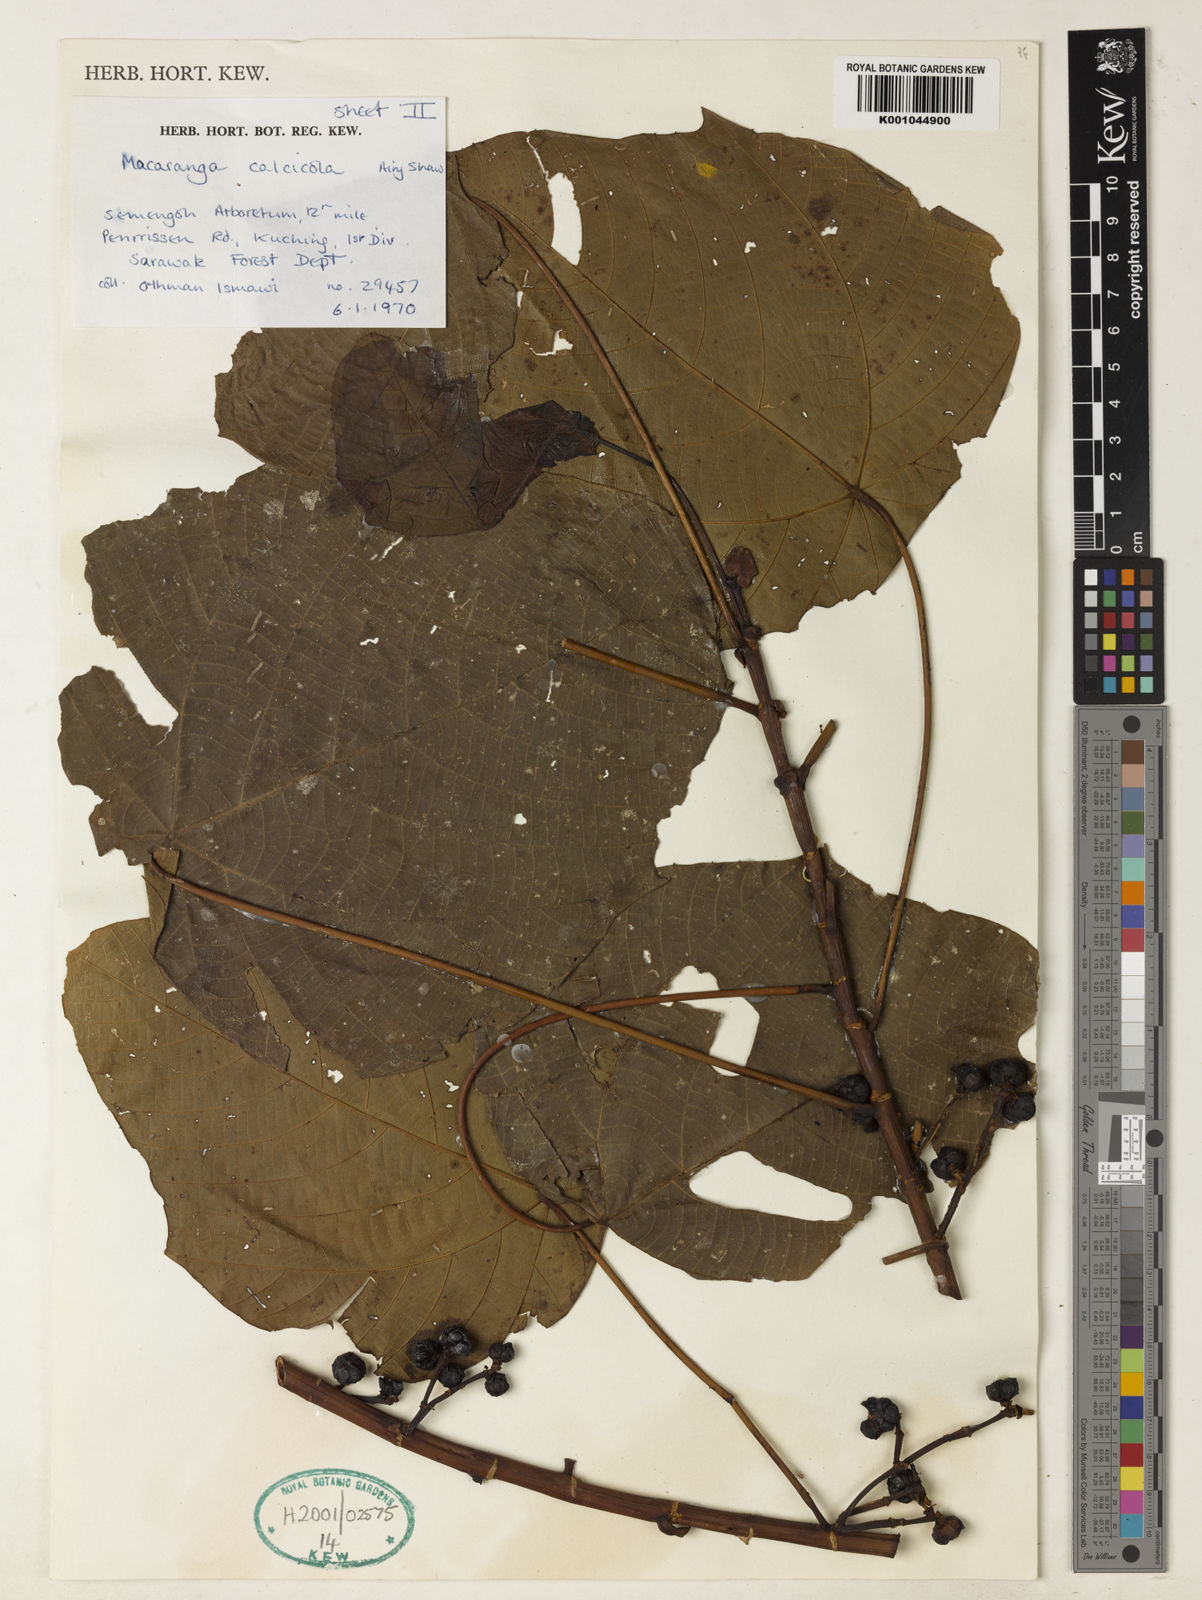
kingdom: Plantae
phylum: Tracheophyta
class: Magnoliopsida
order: Malpighiales
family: Euphorbiaceae
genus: Macaranga
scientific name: Macaranga calcicola
